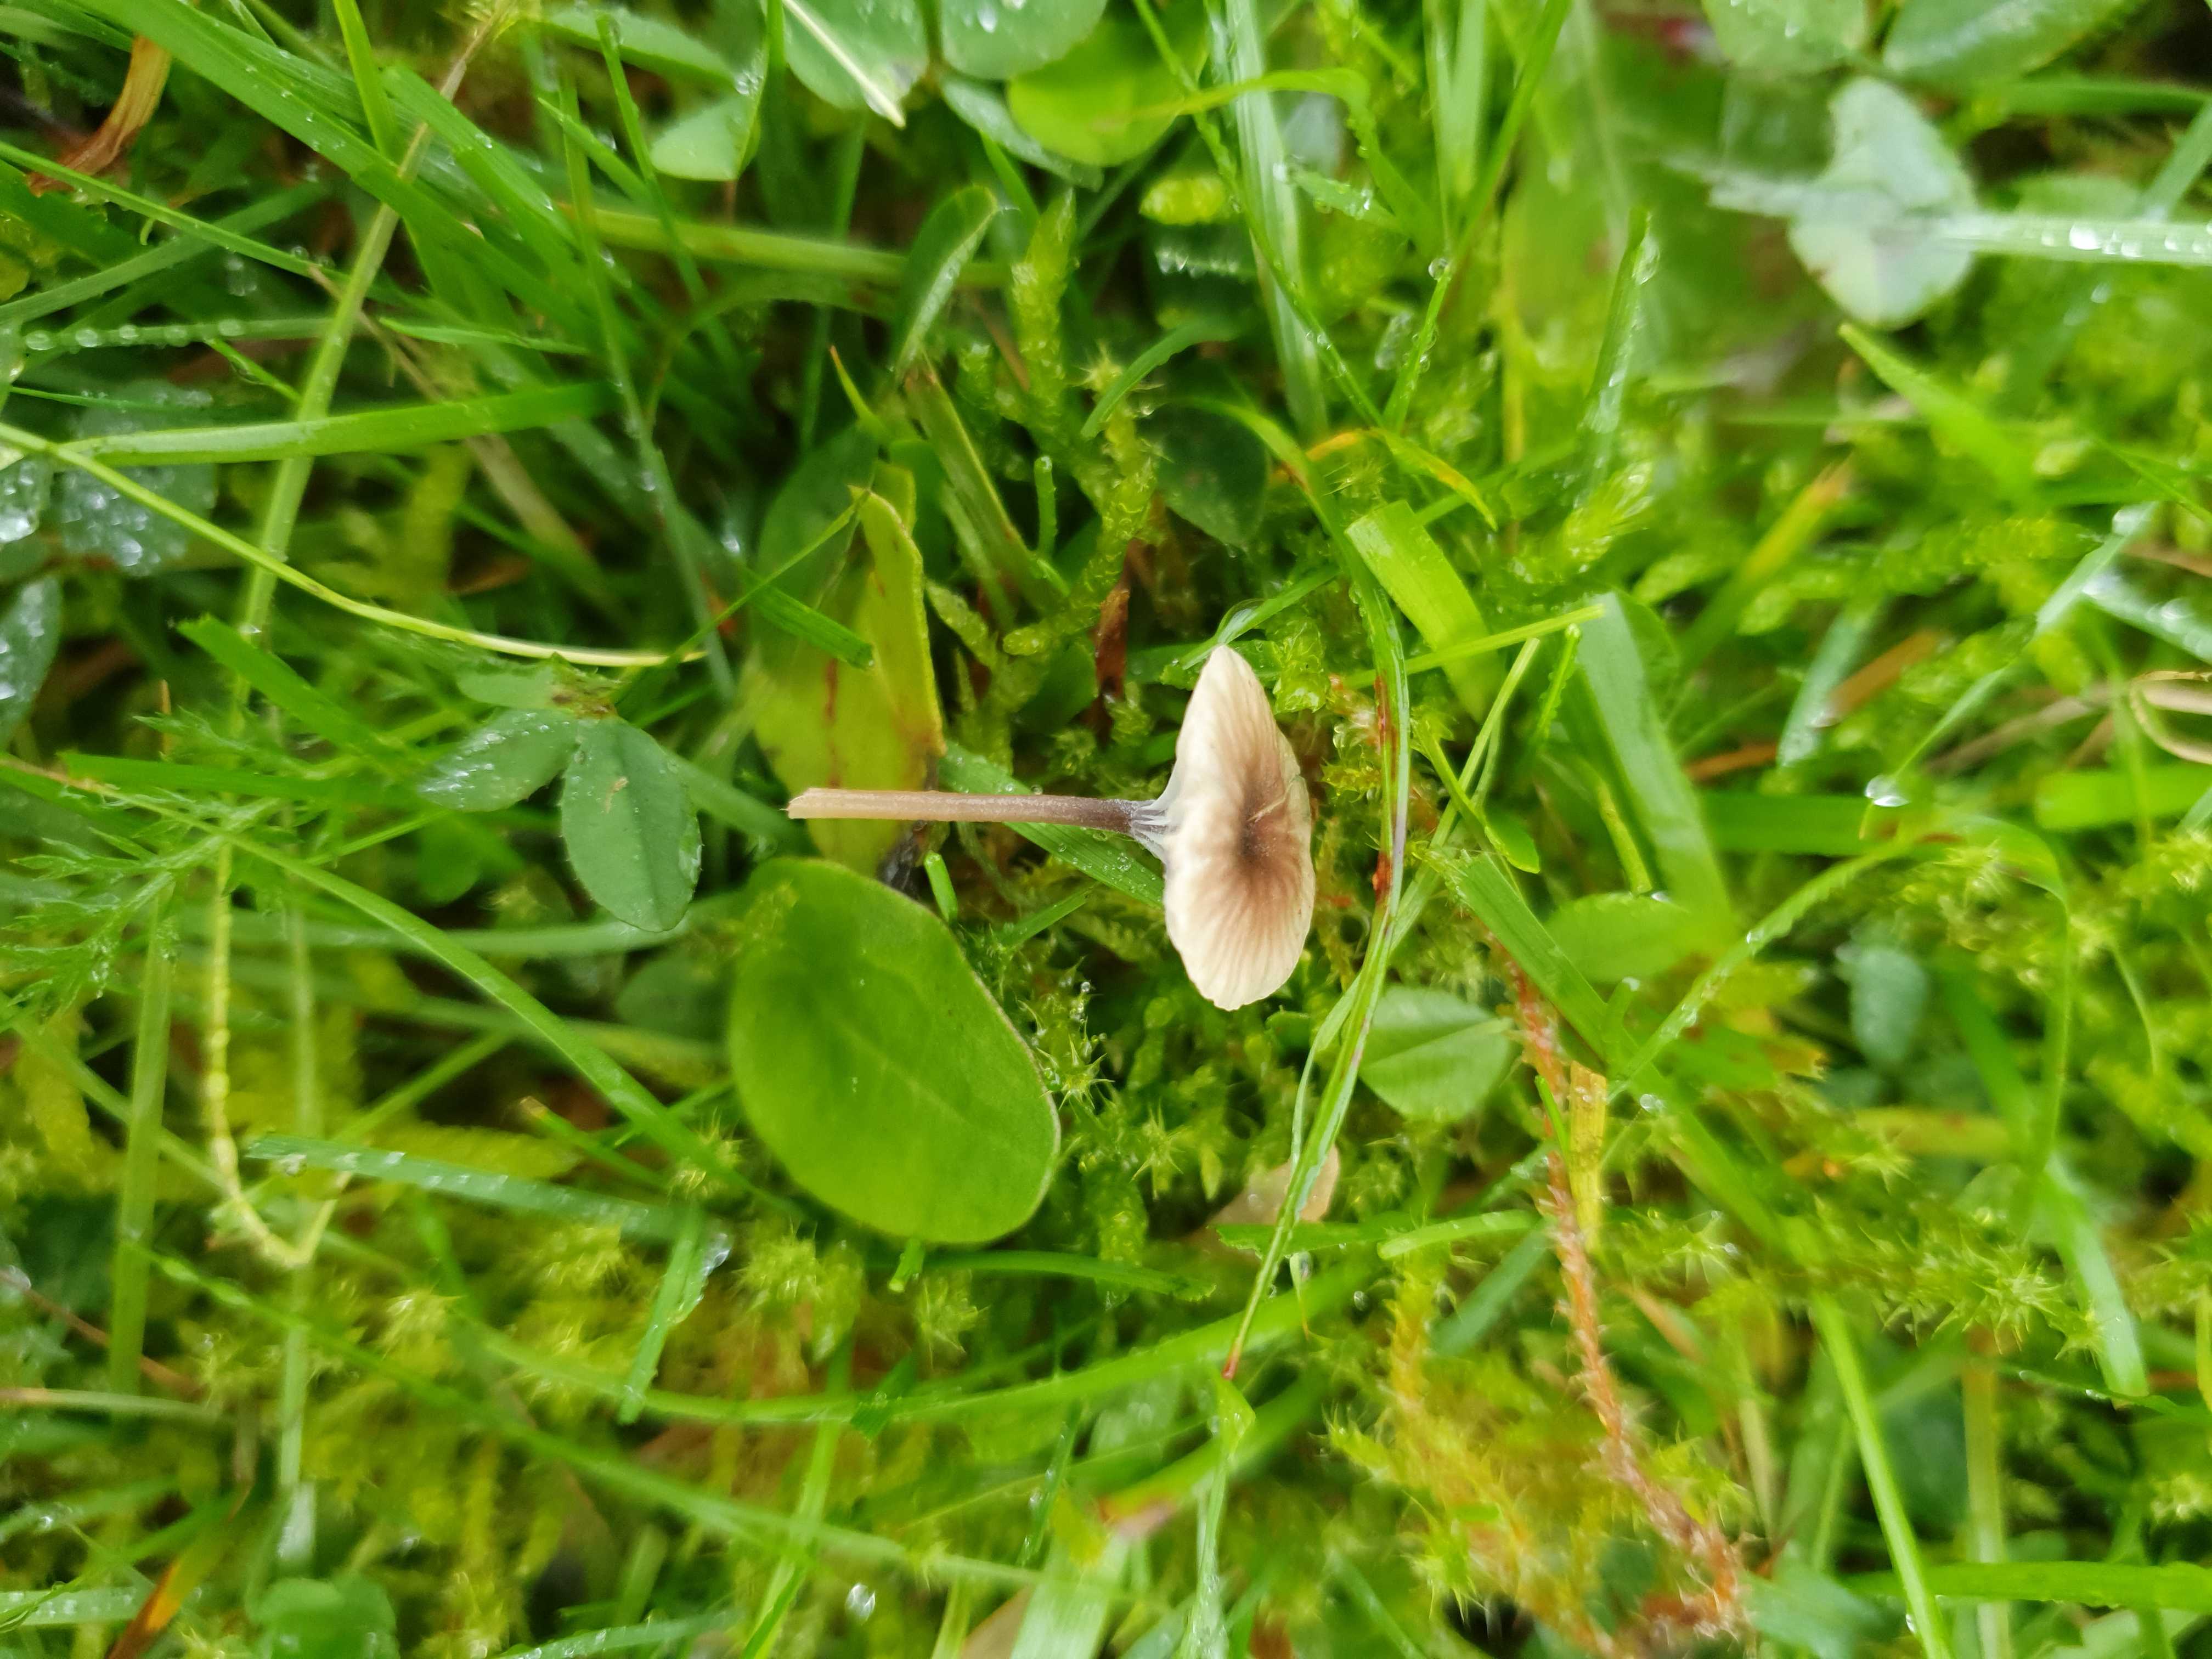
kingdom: Fungi
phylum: Basidiomycota
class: Agaricomycetes
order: Hymenochaetales
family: Rickenellaceae
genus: Rickenella
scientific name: Rickenella swartzii
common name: finstokket mosnavlehat
